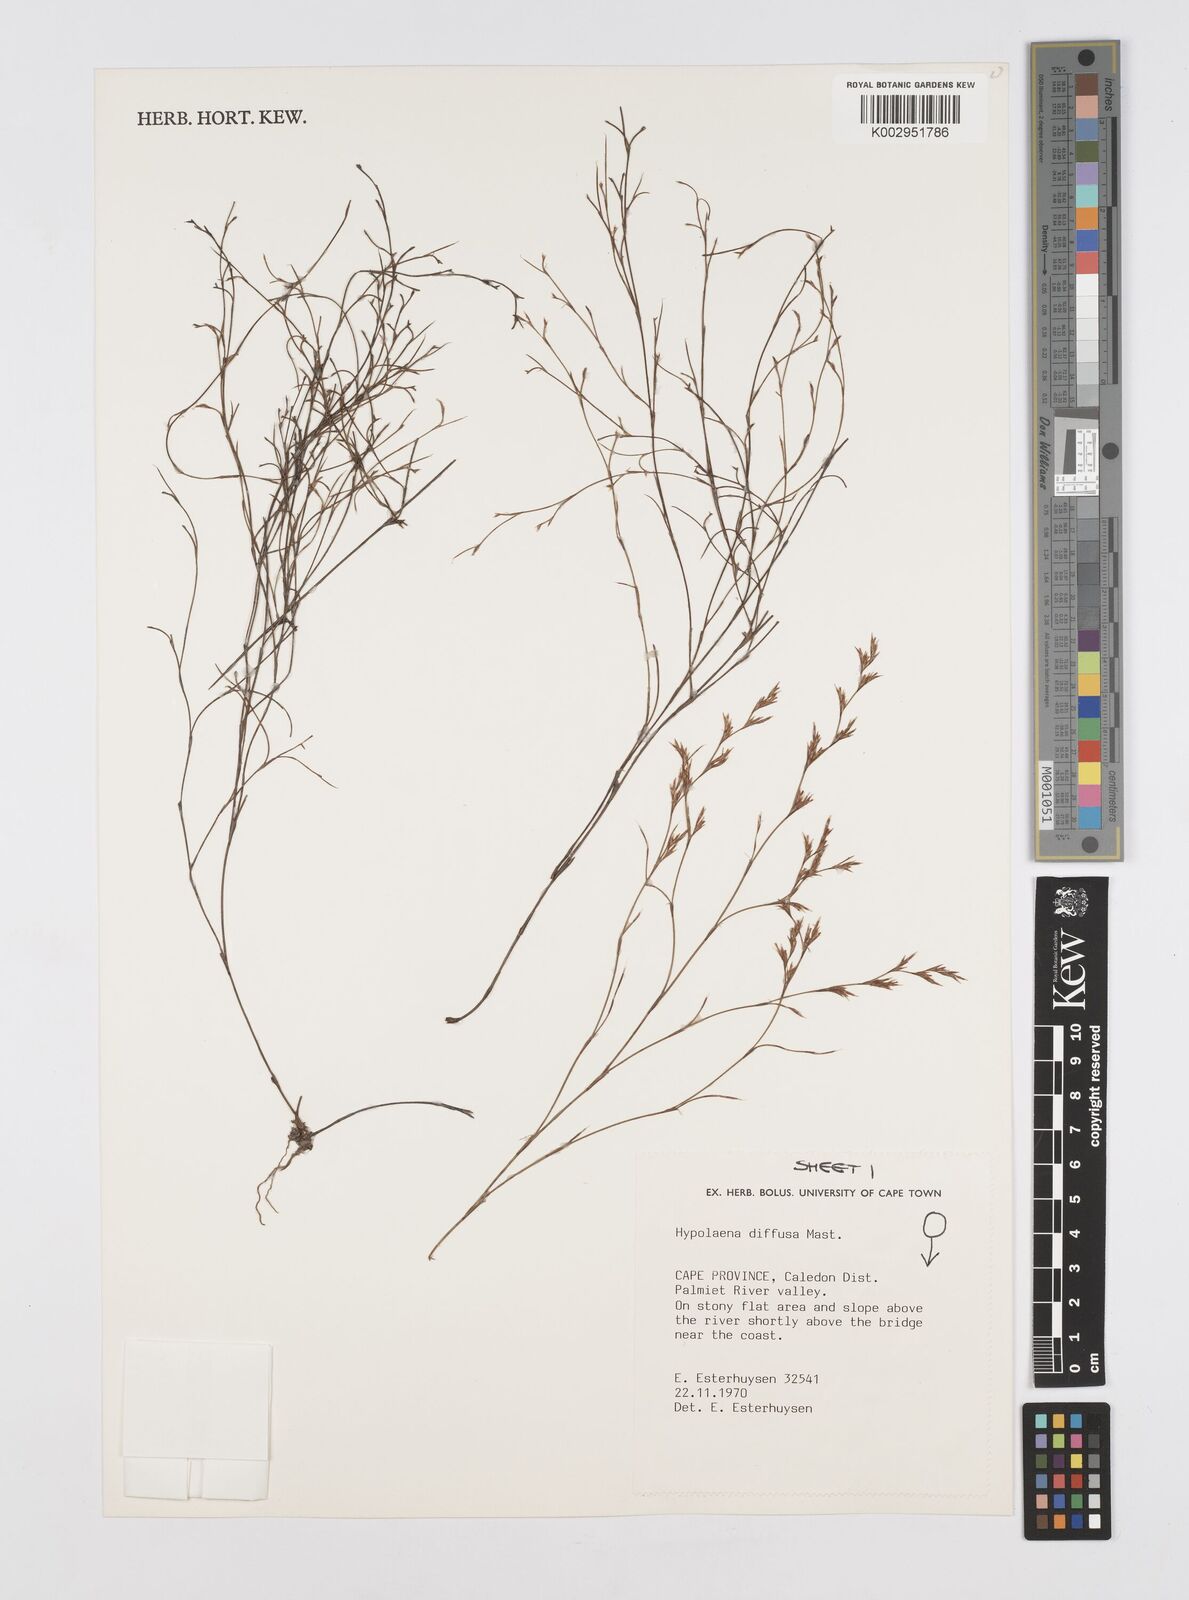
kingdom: Plantae
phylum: Tracheophyta
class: Liliopsida
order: Poales
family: Restionaceae
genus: Restio
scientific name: Restio versatilis
